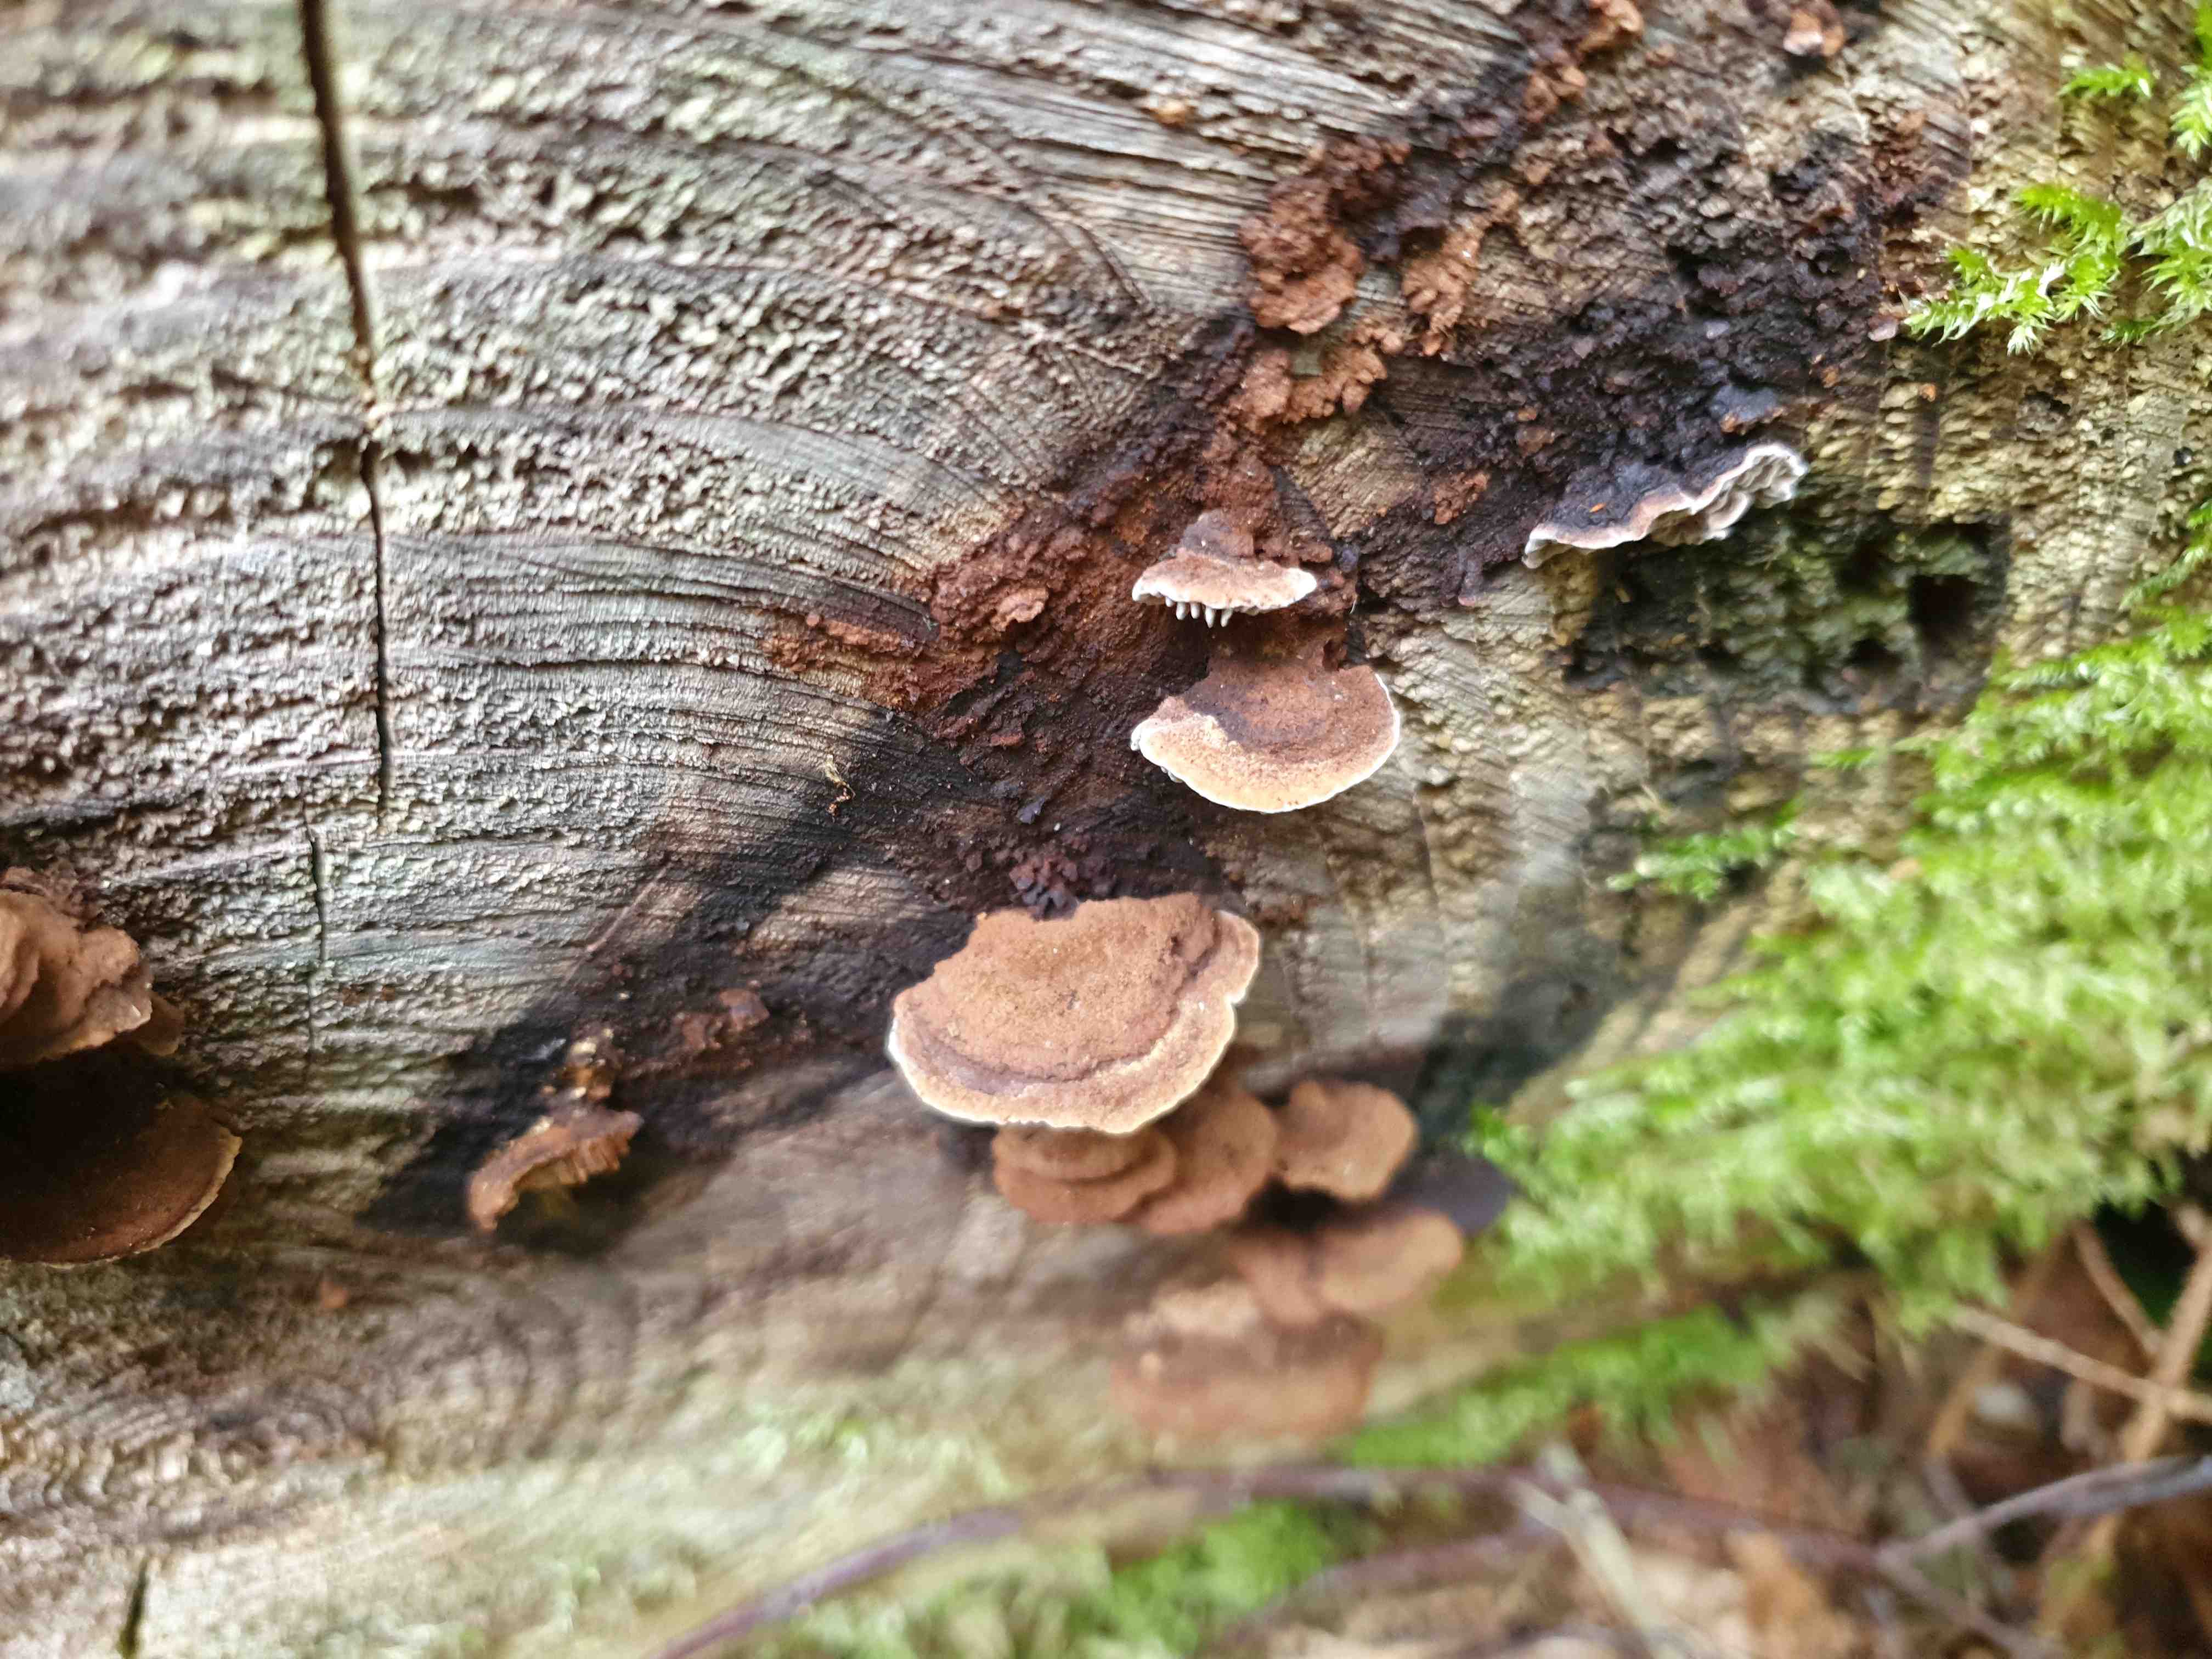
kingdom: Fungi
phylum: Basidiomycota
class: Agaricomycetes
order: Gloeophyllales
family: Gloeophyllaceae
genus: Gloeophyllum
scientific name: Gloeophyllum sepiarium
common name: fyrre-korkhat
